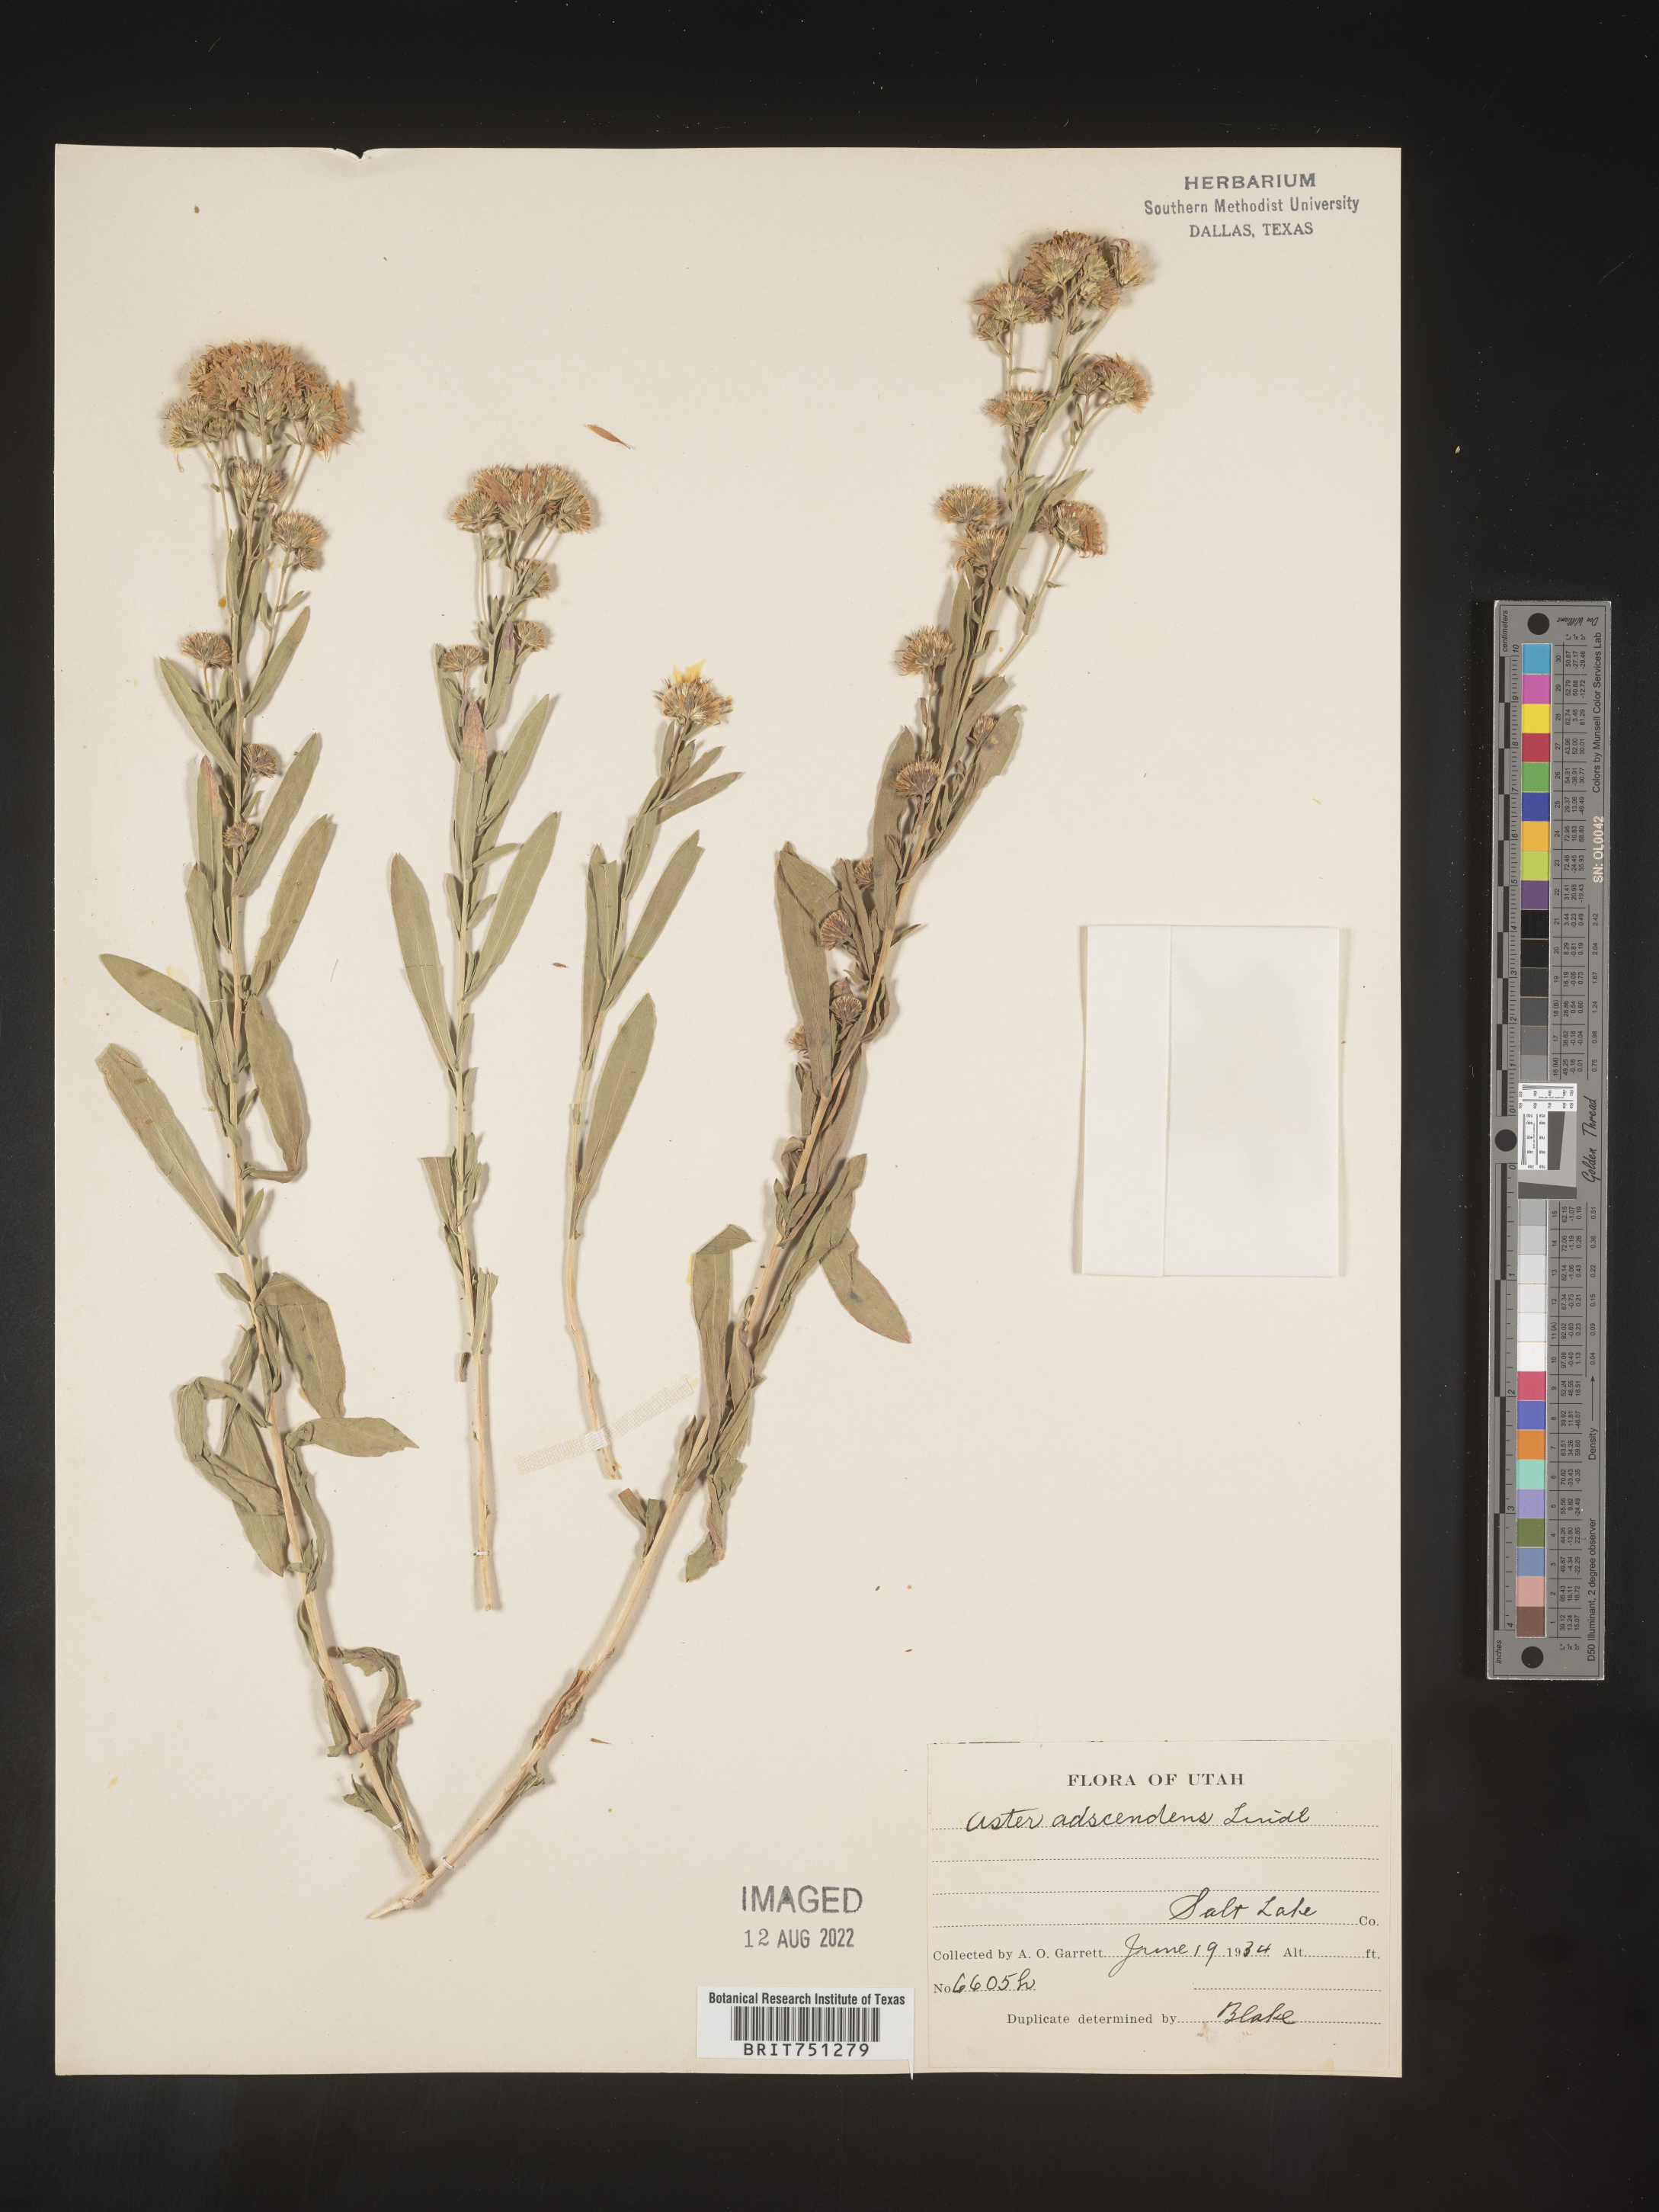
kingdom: Plantae
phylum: Tracheophyta
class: Magnoliopsida
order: Asterales
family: Asteraceae
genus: Symphyotrichum
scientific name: Symphyotrichum ascendens
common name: Intermountain aster
